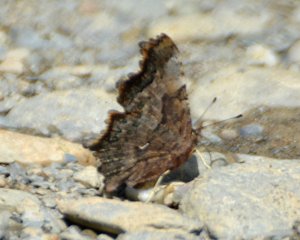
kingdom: Animalia
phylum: Arthropoda
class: Insecta
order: Lepidoptera
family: Nymphalidae
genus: Polygonia
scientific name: Polygonia faunus
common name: Green Comma
